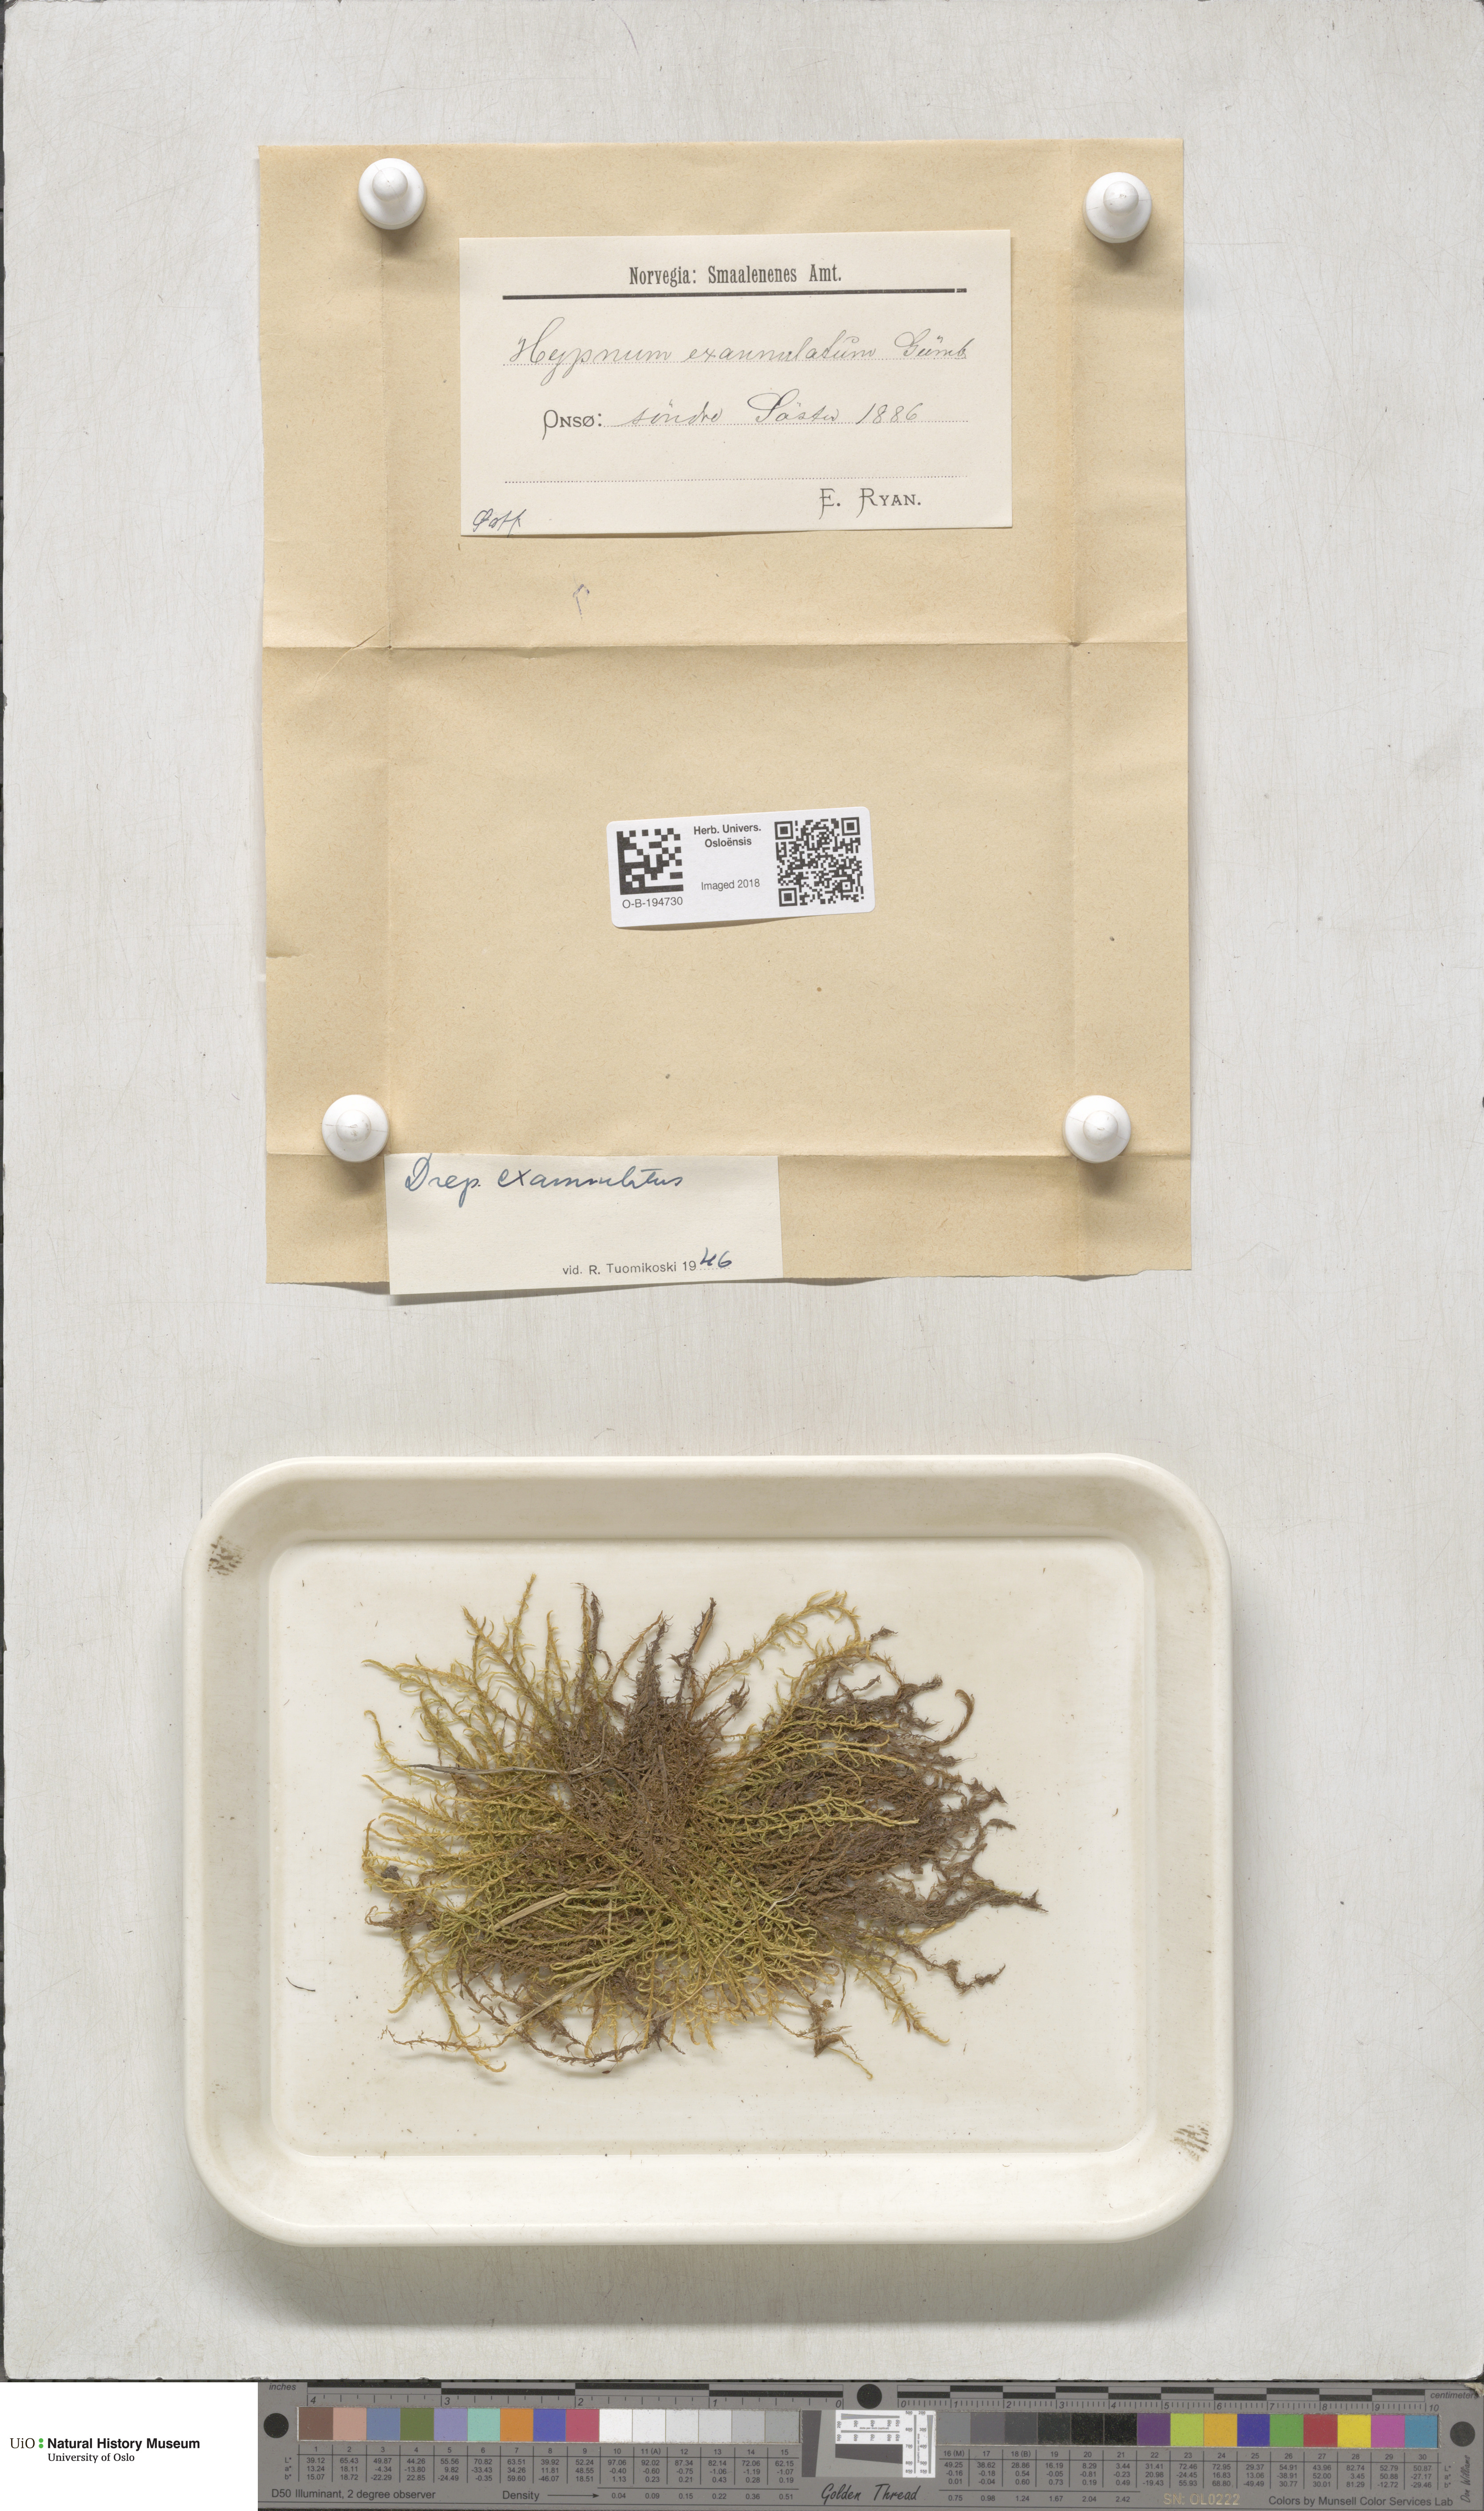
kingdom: Plantae
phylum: Bryophyta
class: Bryopsida
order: Hypnales
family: Calliergonaceae
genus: Sarmentypnum
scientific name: Sarmentypnum exannulatum
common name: Ringless spoon moss
